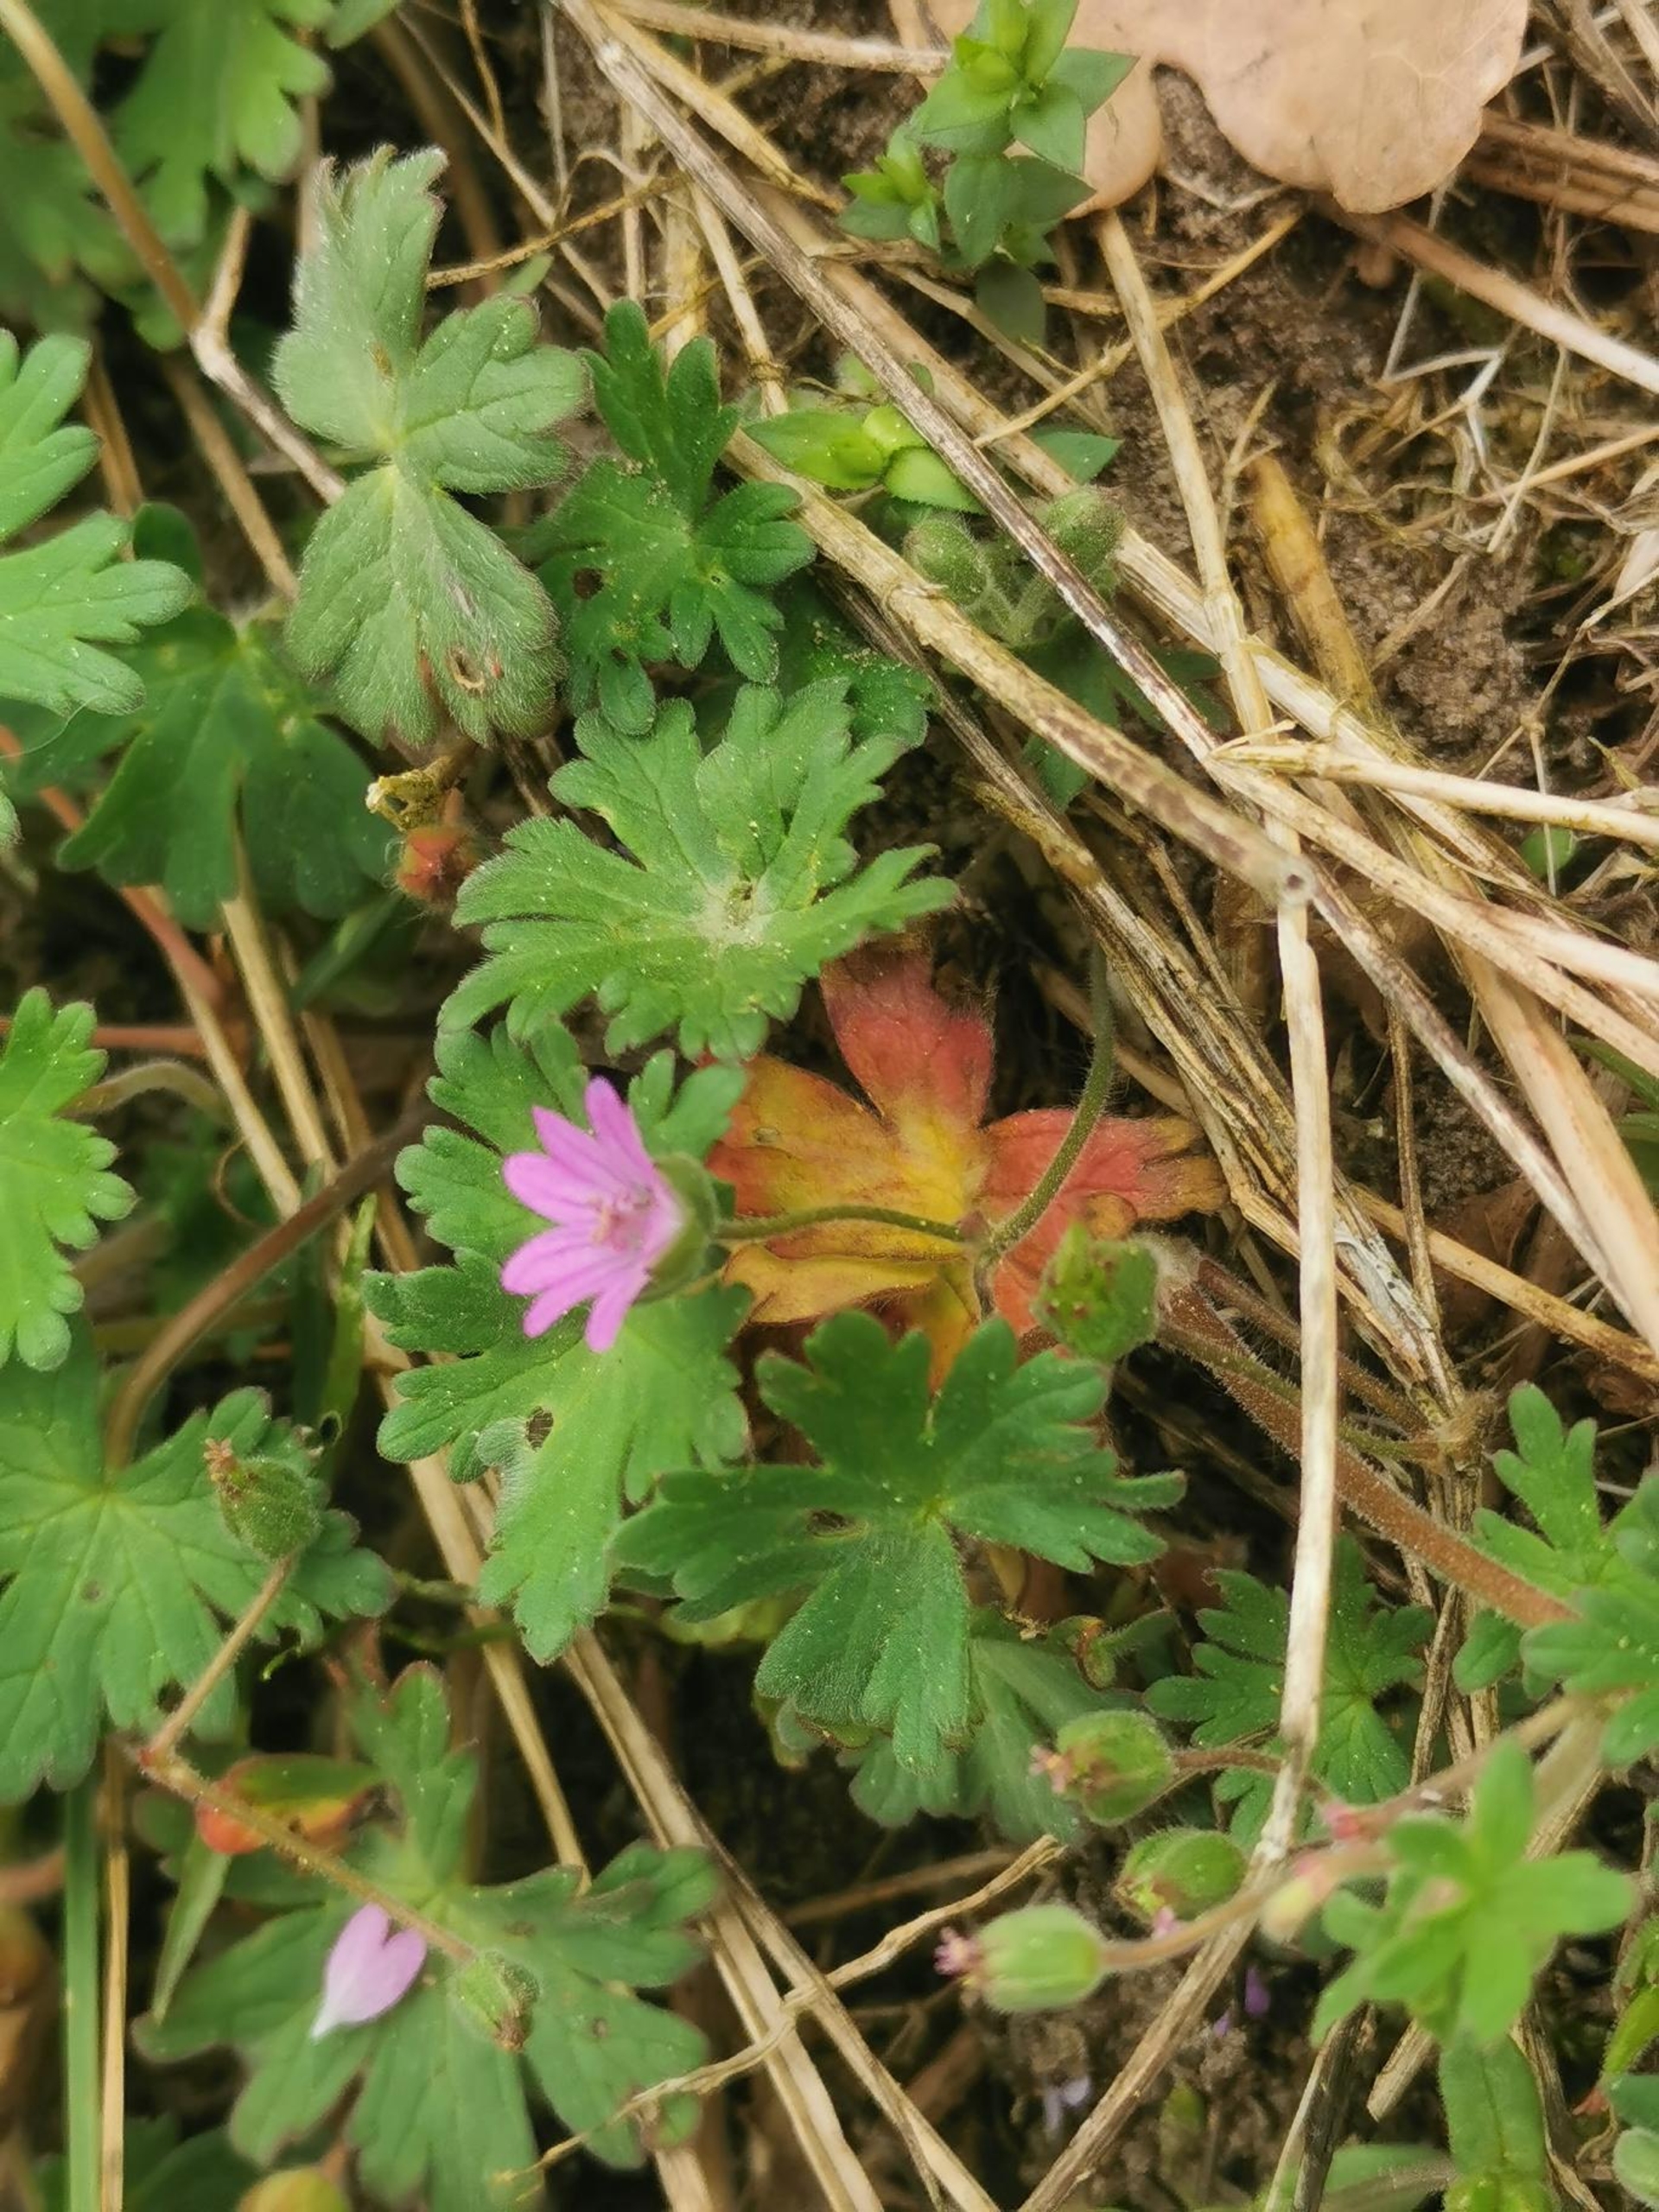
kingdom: Plantae
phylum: Tracheophyta
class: Magnoliopsida
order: Geraniales
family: Geraniaceae
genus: Geranium
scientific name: Geranium molle
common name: Blød storkenæb
